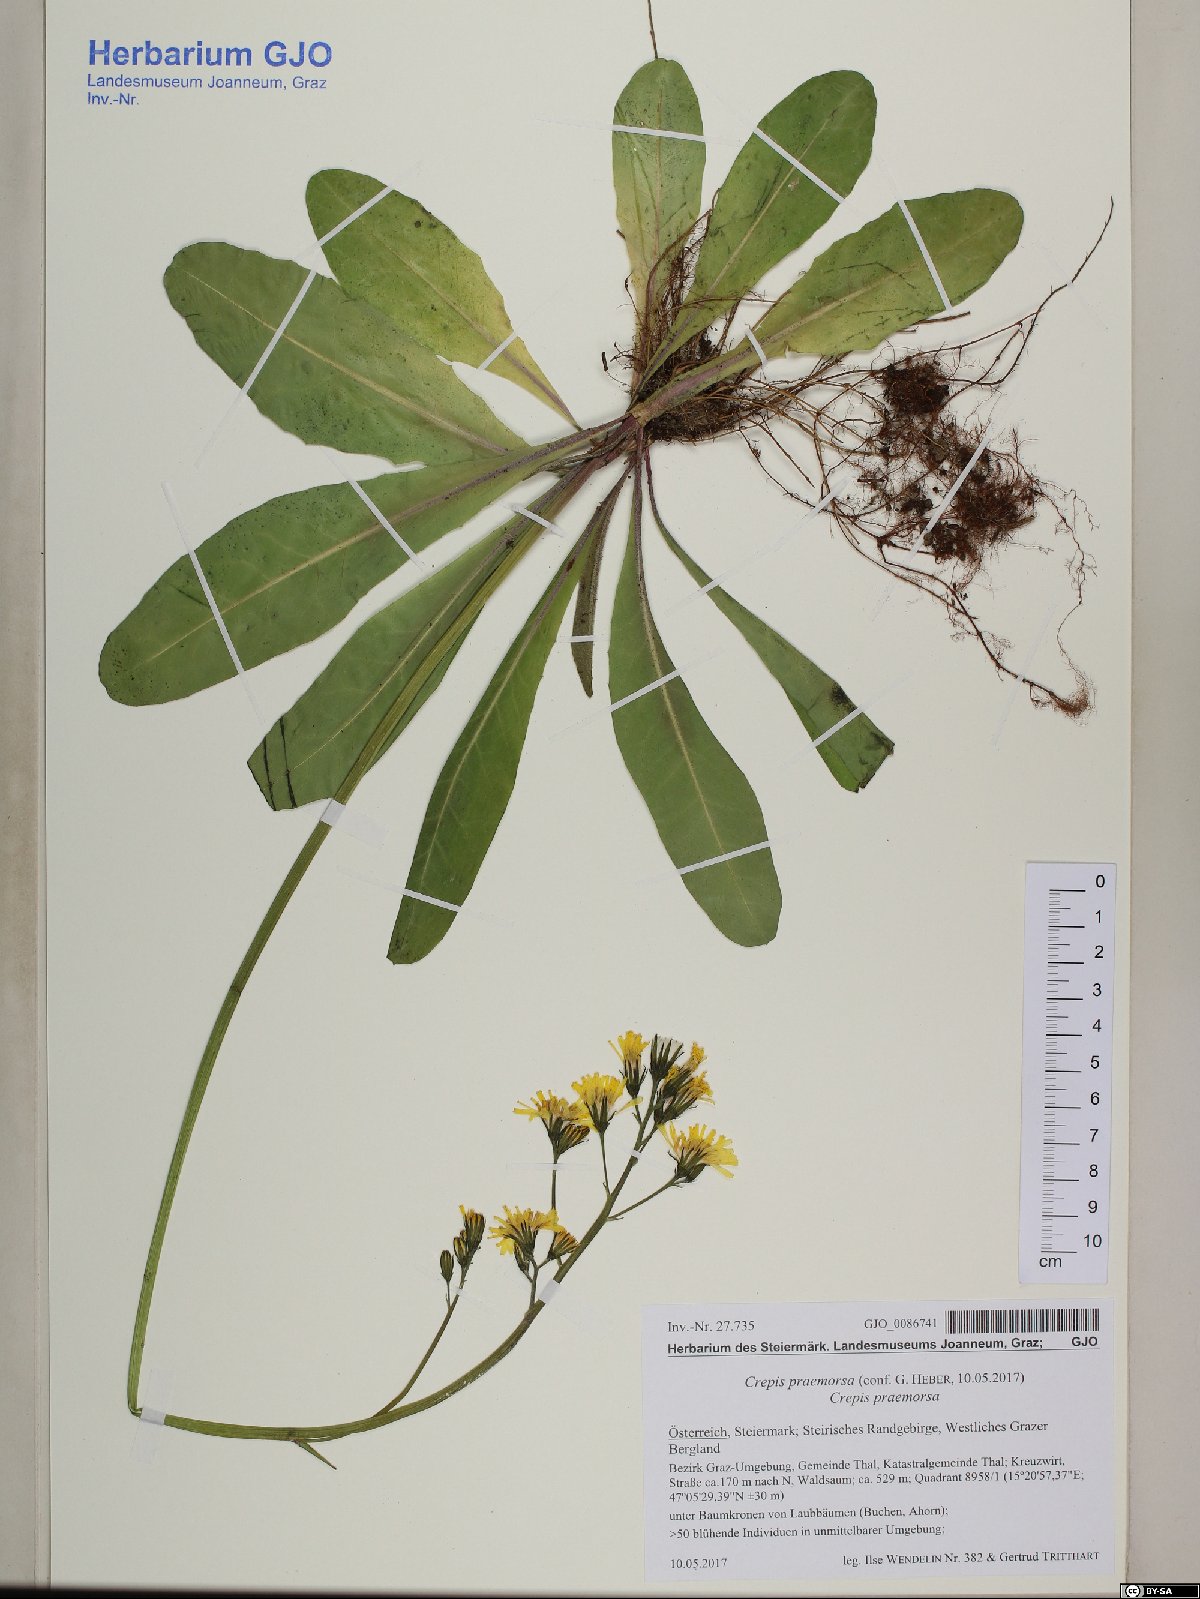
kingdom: Plantae
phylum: Tracheophyta
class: Magnoliopsida
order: Asterales
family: Asteraceae
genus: Crepis
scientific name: Crepis praemorsa
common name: Leafless hawk's-beard
